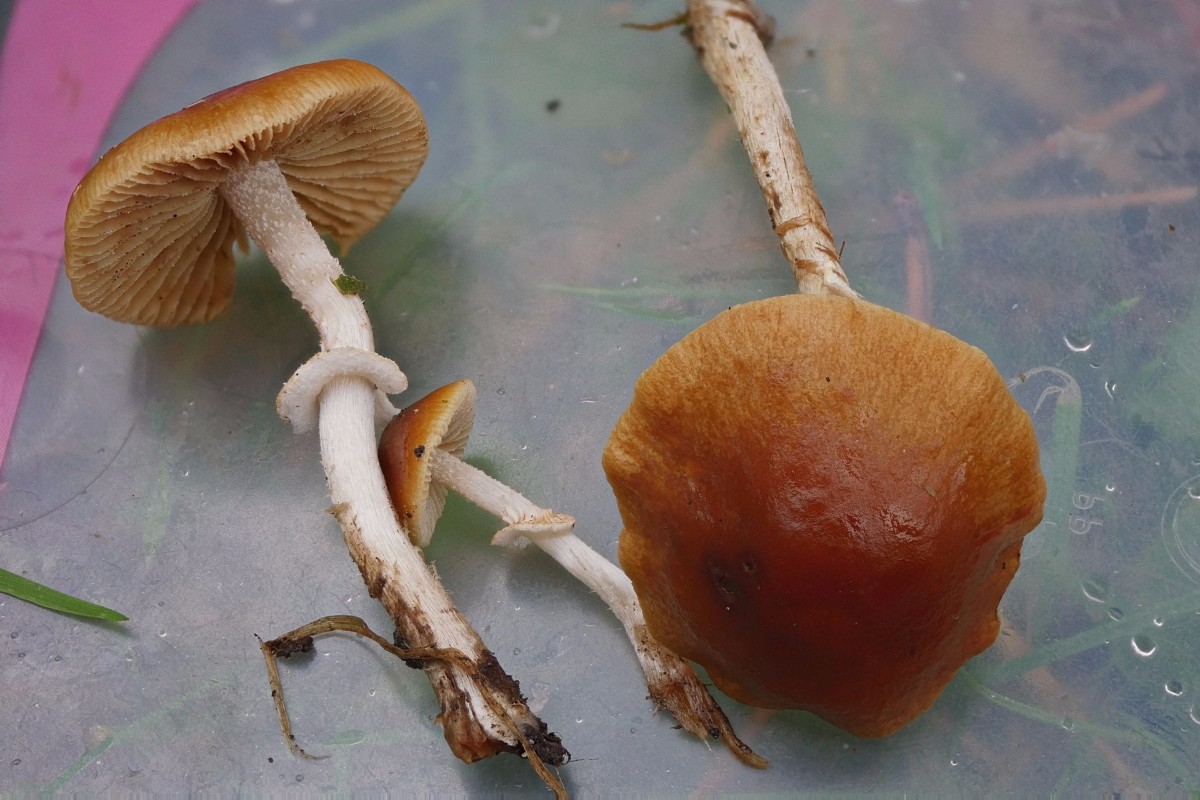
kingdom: Fungi
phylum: Basidiomycota
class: Agaricomycetes
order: Agaricales
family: Bolbitiaceae
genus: Pholiotina
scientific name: Pholiotina
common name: dansehat
